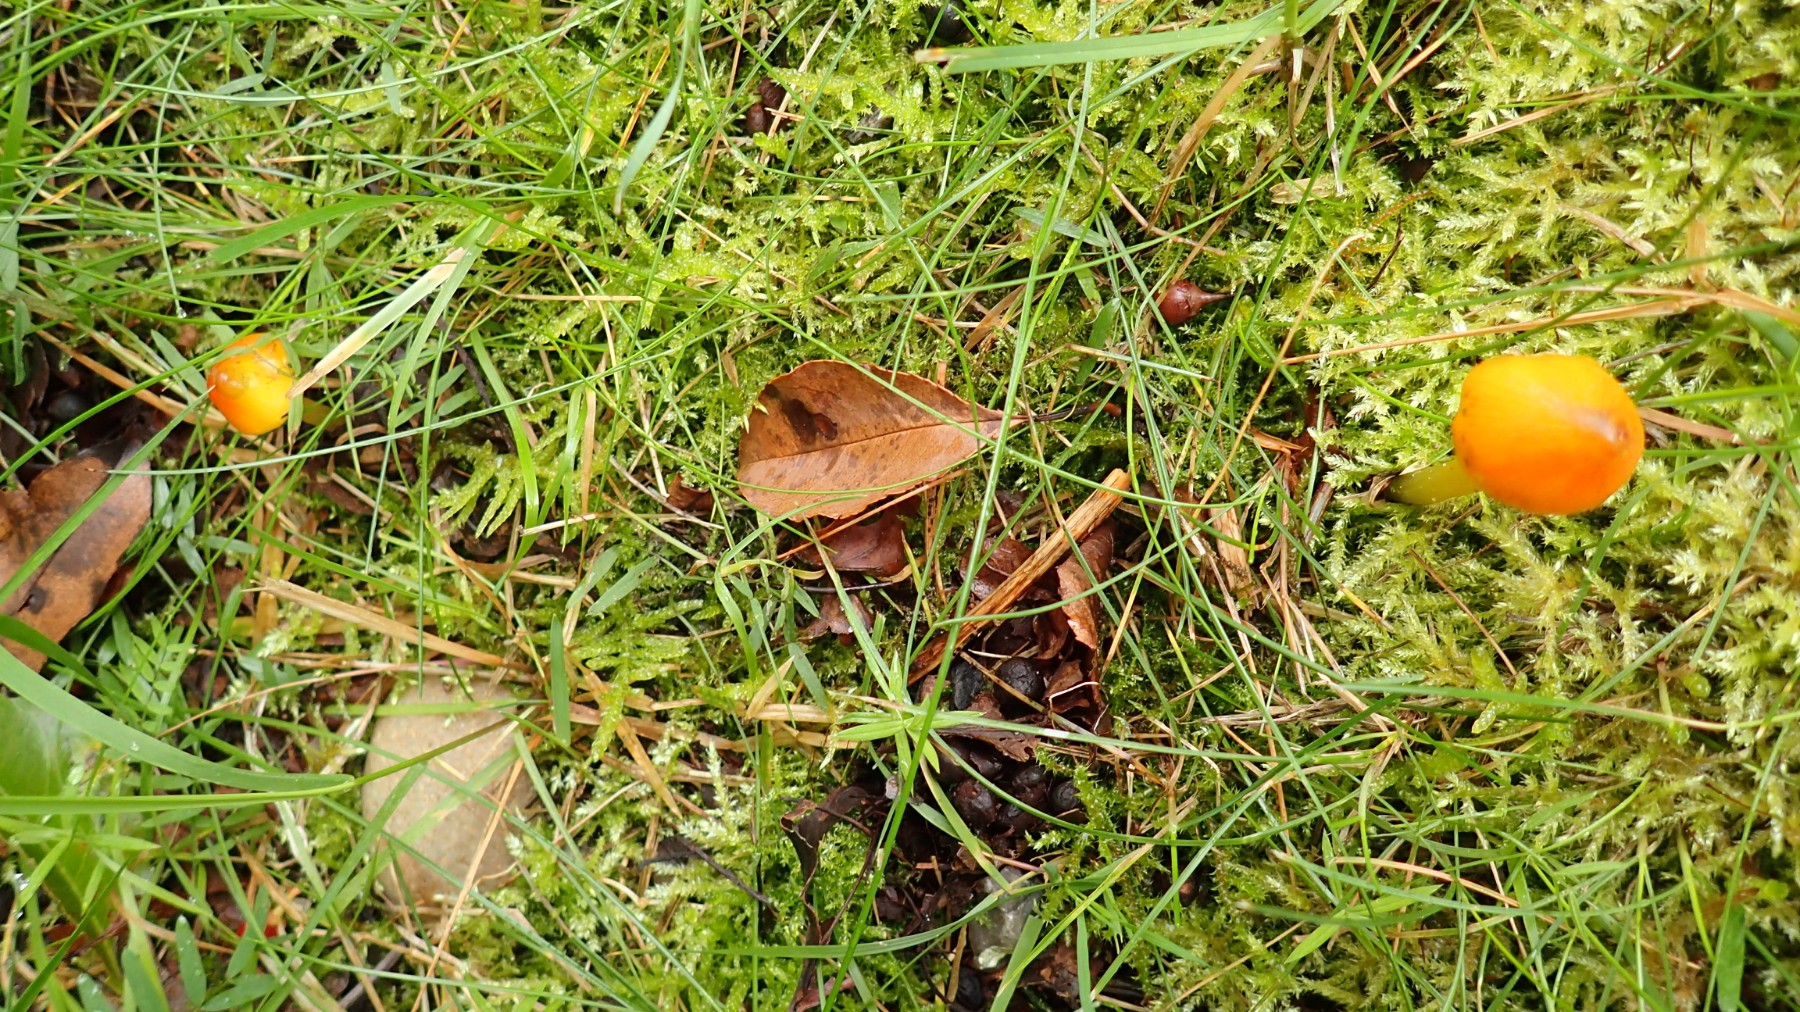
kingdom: Fungi
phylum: Basidiomycota
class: Agaricomycetes
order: Agaricales
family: Hygrophoraceae
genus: Hygrocybe
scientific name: Hygrocybe conica
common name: kegle-vokshat
